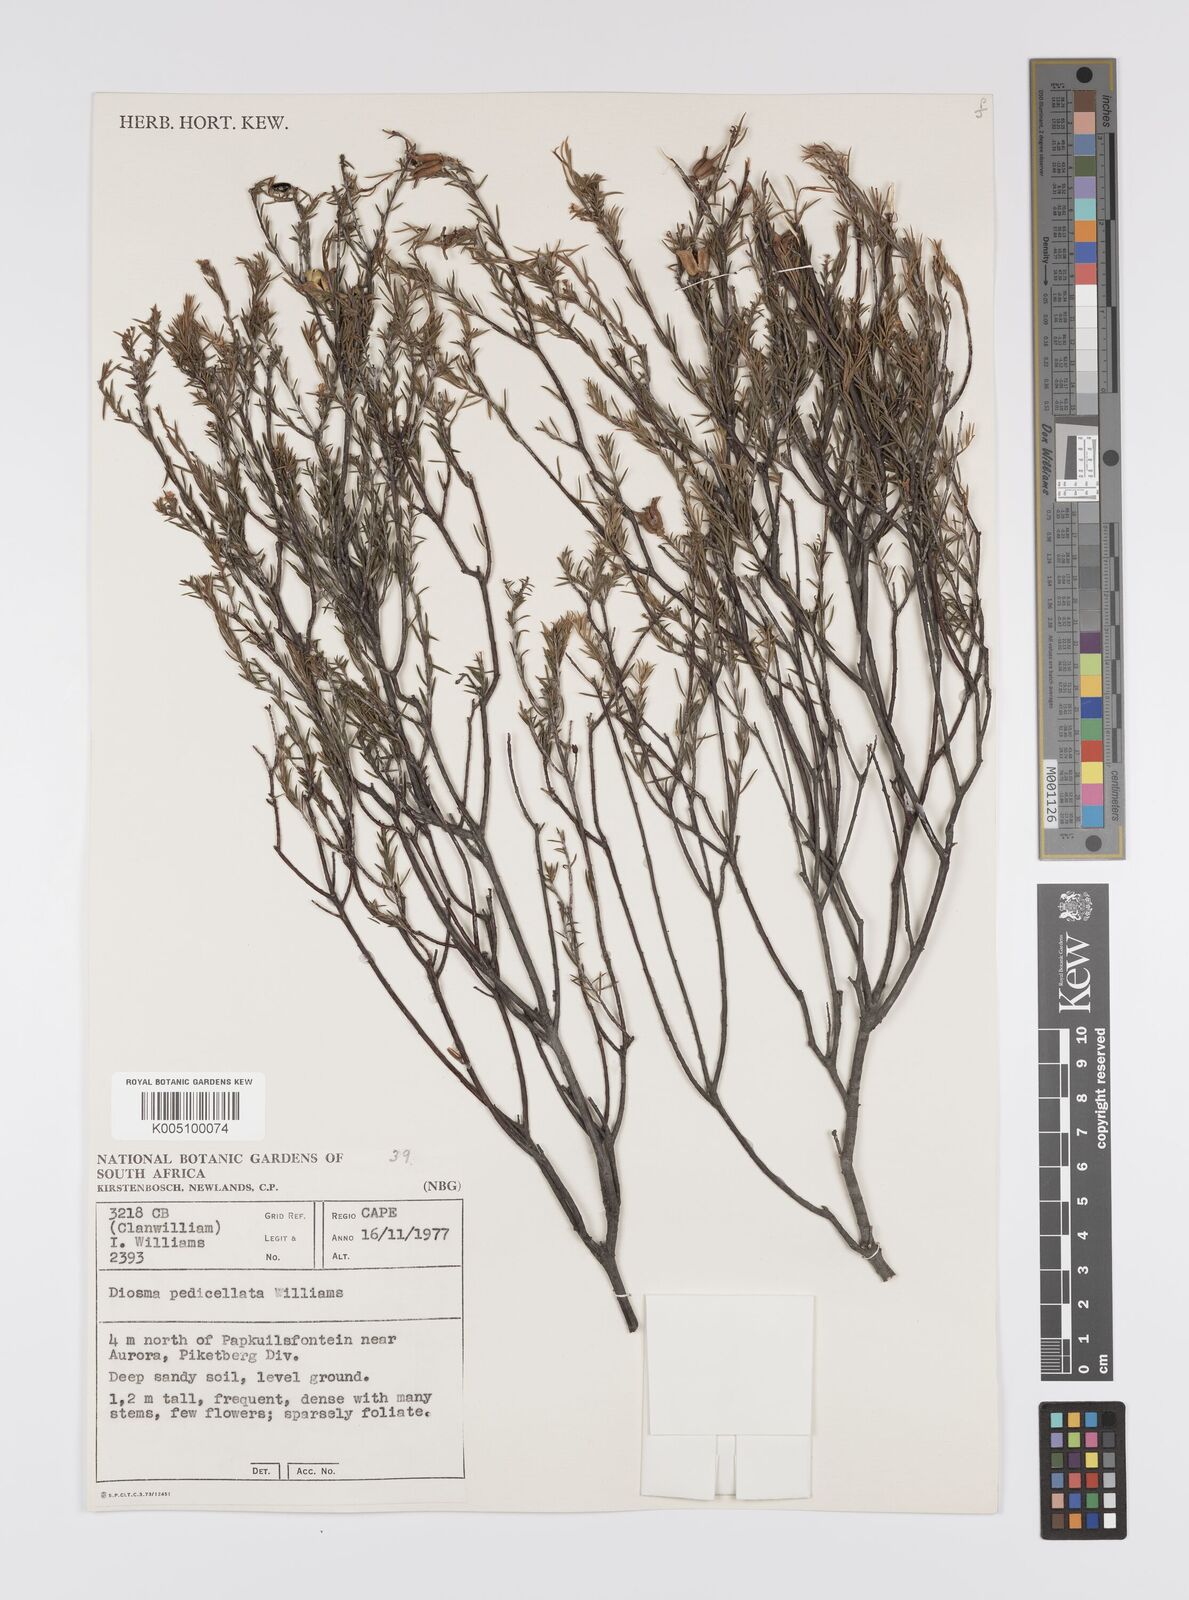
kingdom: Plantae
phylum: Tracheophyta
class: Magnoliopsida
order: Sapindales
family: Rutaceae
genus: Diosma
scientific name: Diosma pedicellata
